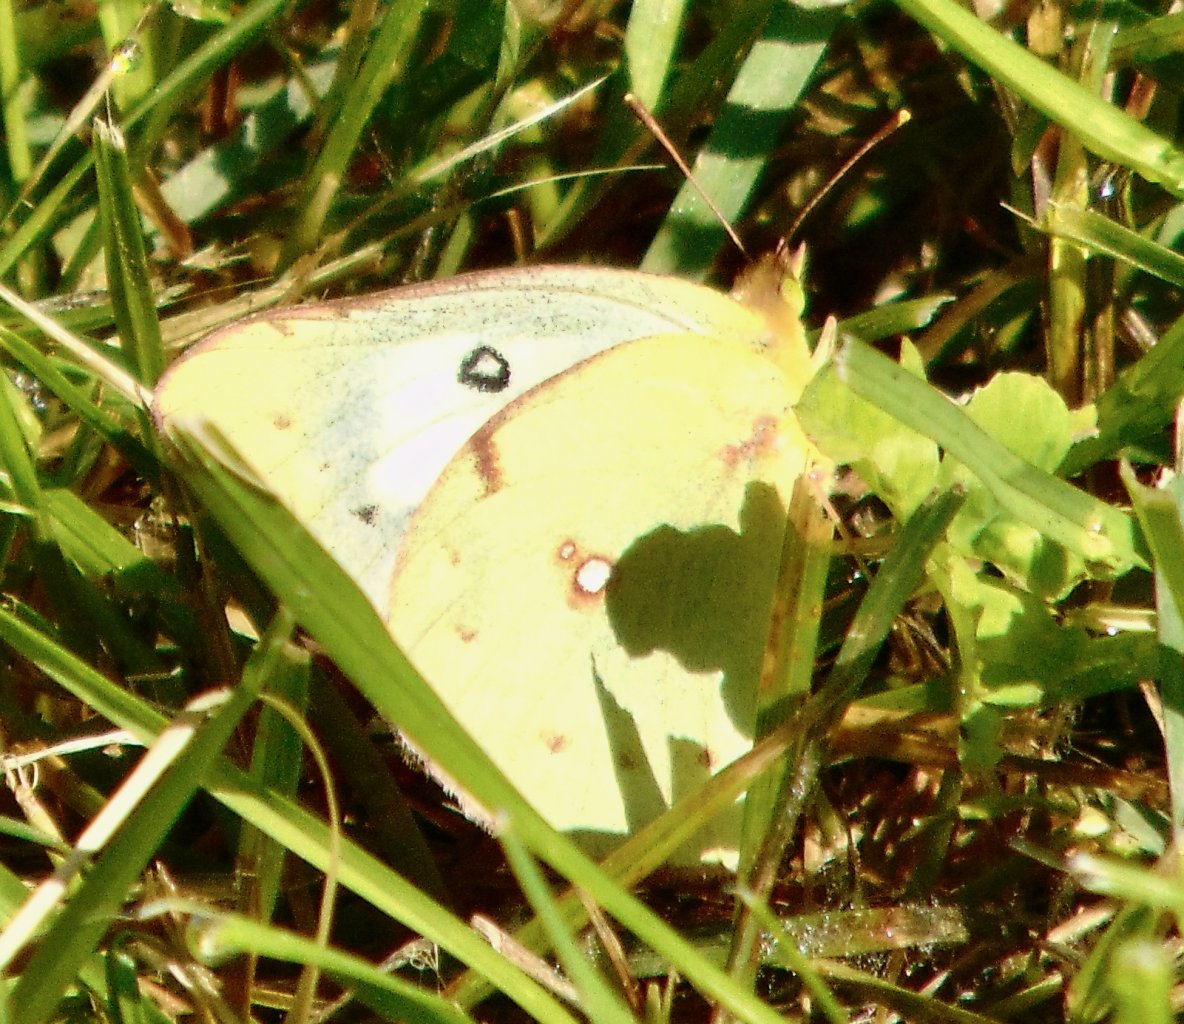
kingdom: Animalia
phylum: Arthropoda
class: Insecta
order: Lepidoptera
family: Pieridae
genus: Colias
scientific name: Colias philodice
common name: Clouded Sulphur
